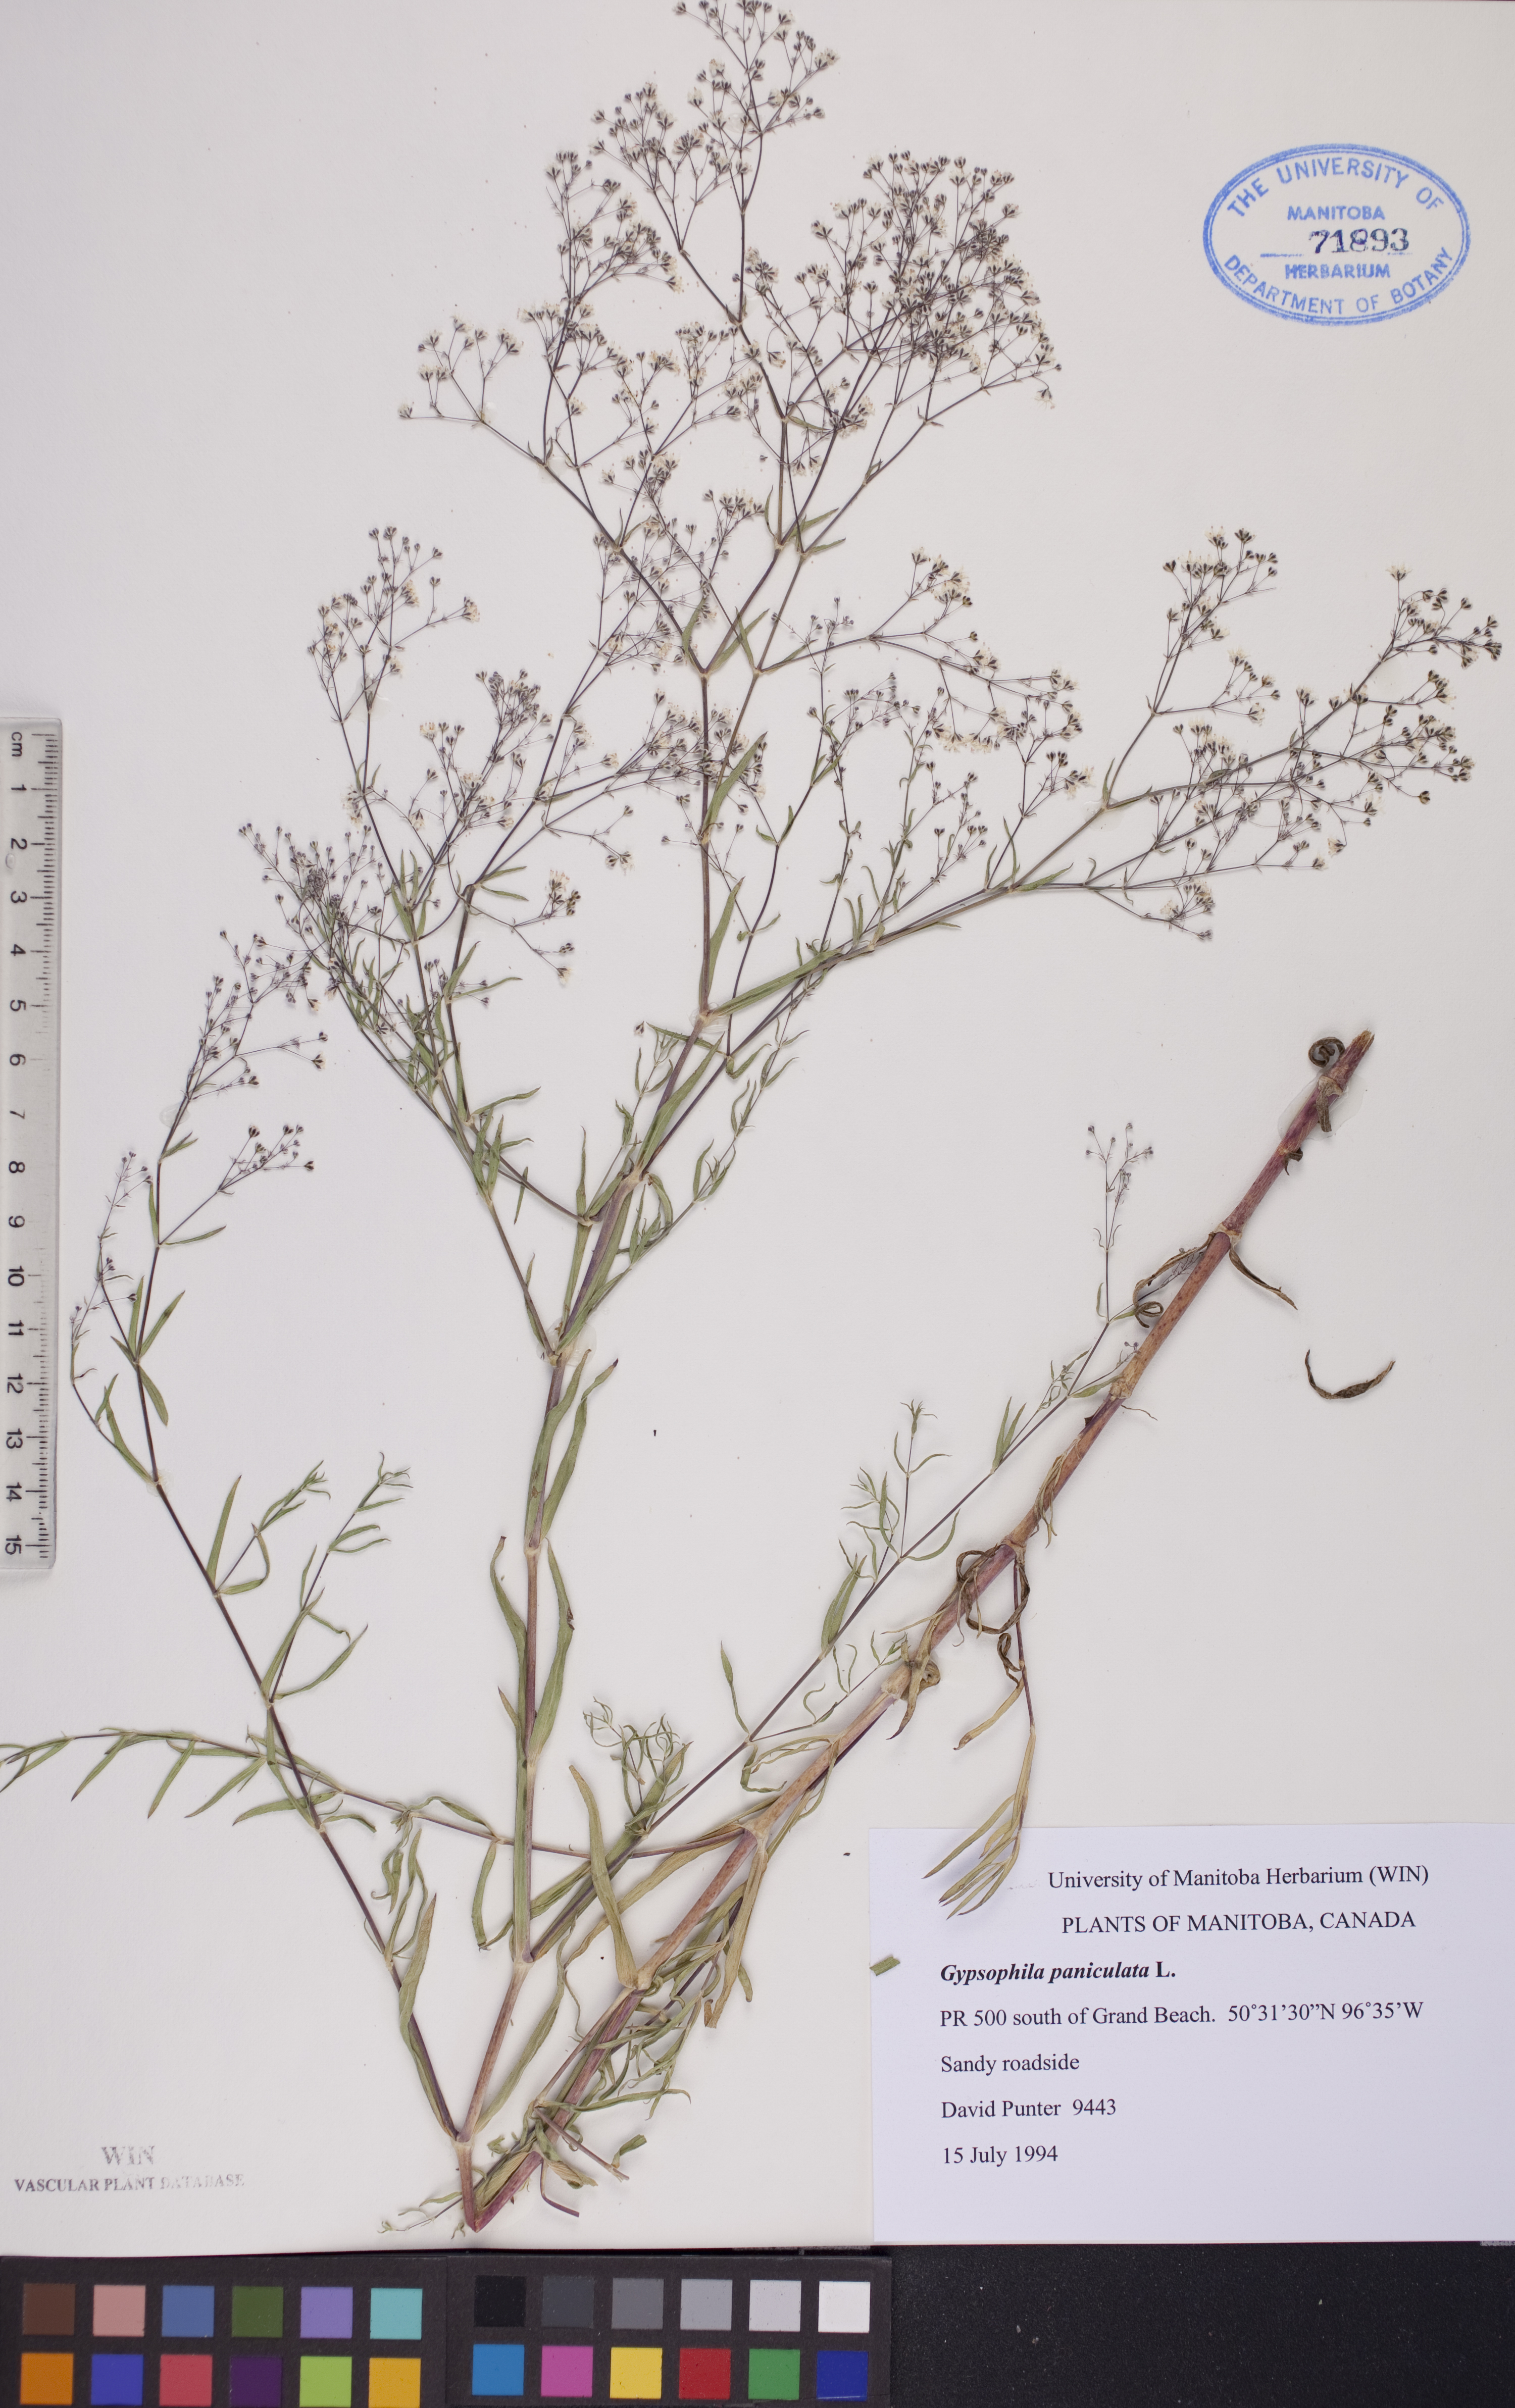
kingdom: Plantae
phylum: Tracheophyta
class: Magnoliopsida
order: Caryophyllales
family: Caryophyllaceae
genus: Gypsophila
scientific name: Gypsophila paniculata
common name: Baby's-breath
